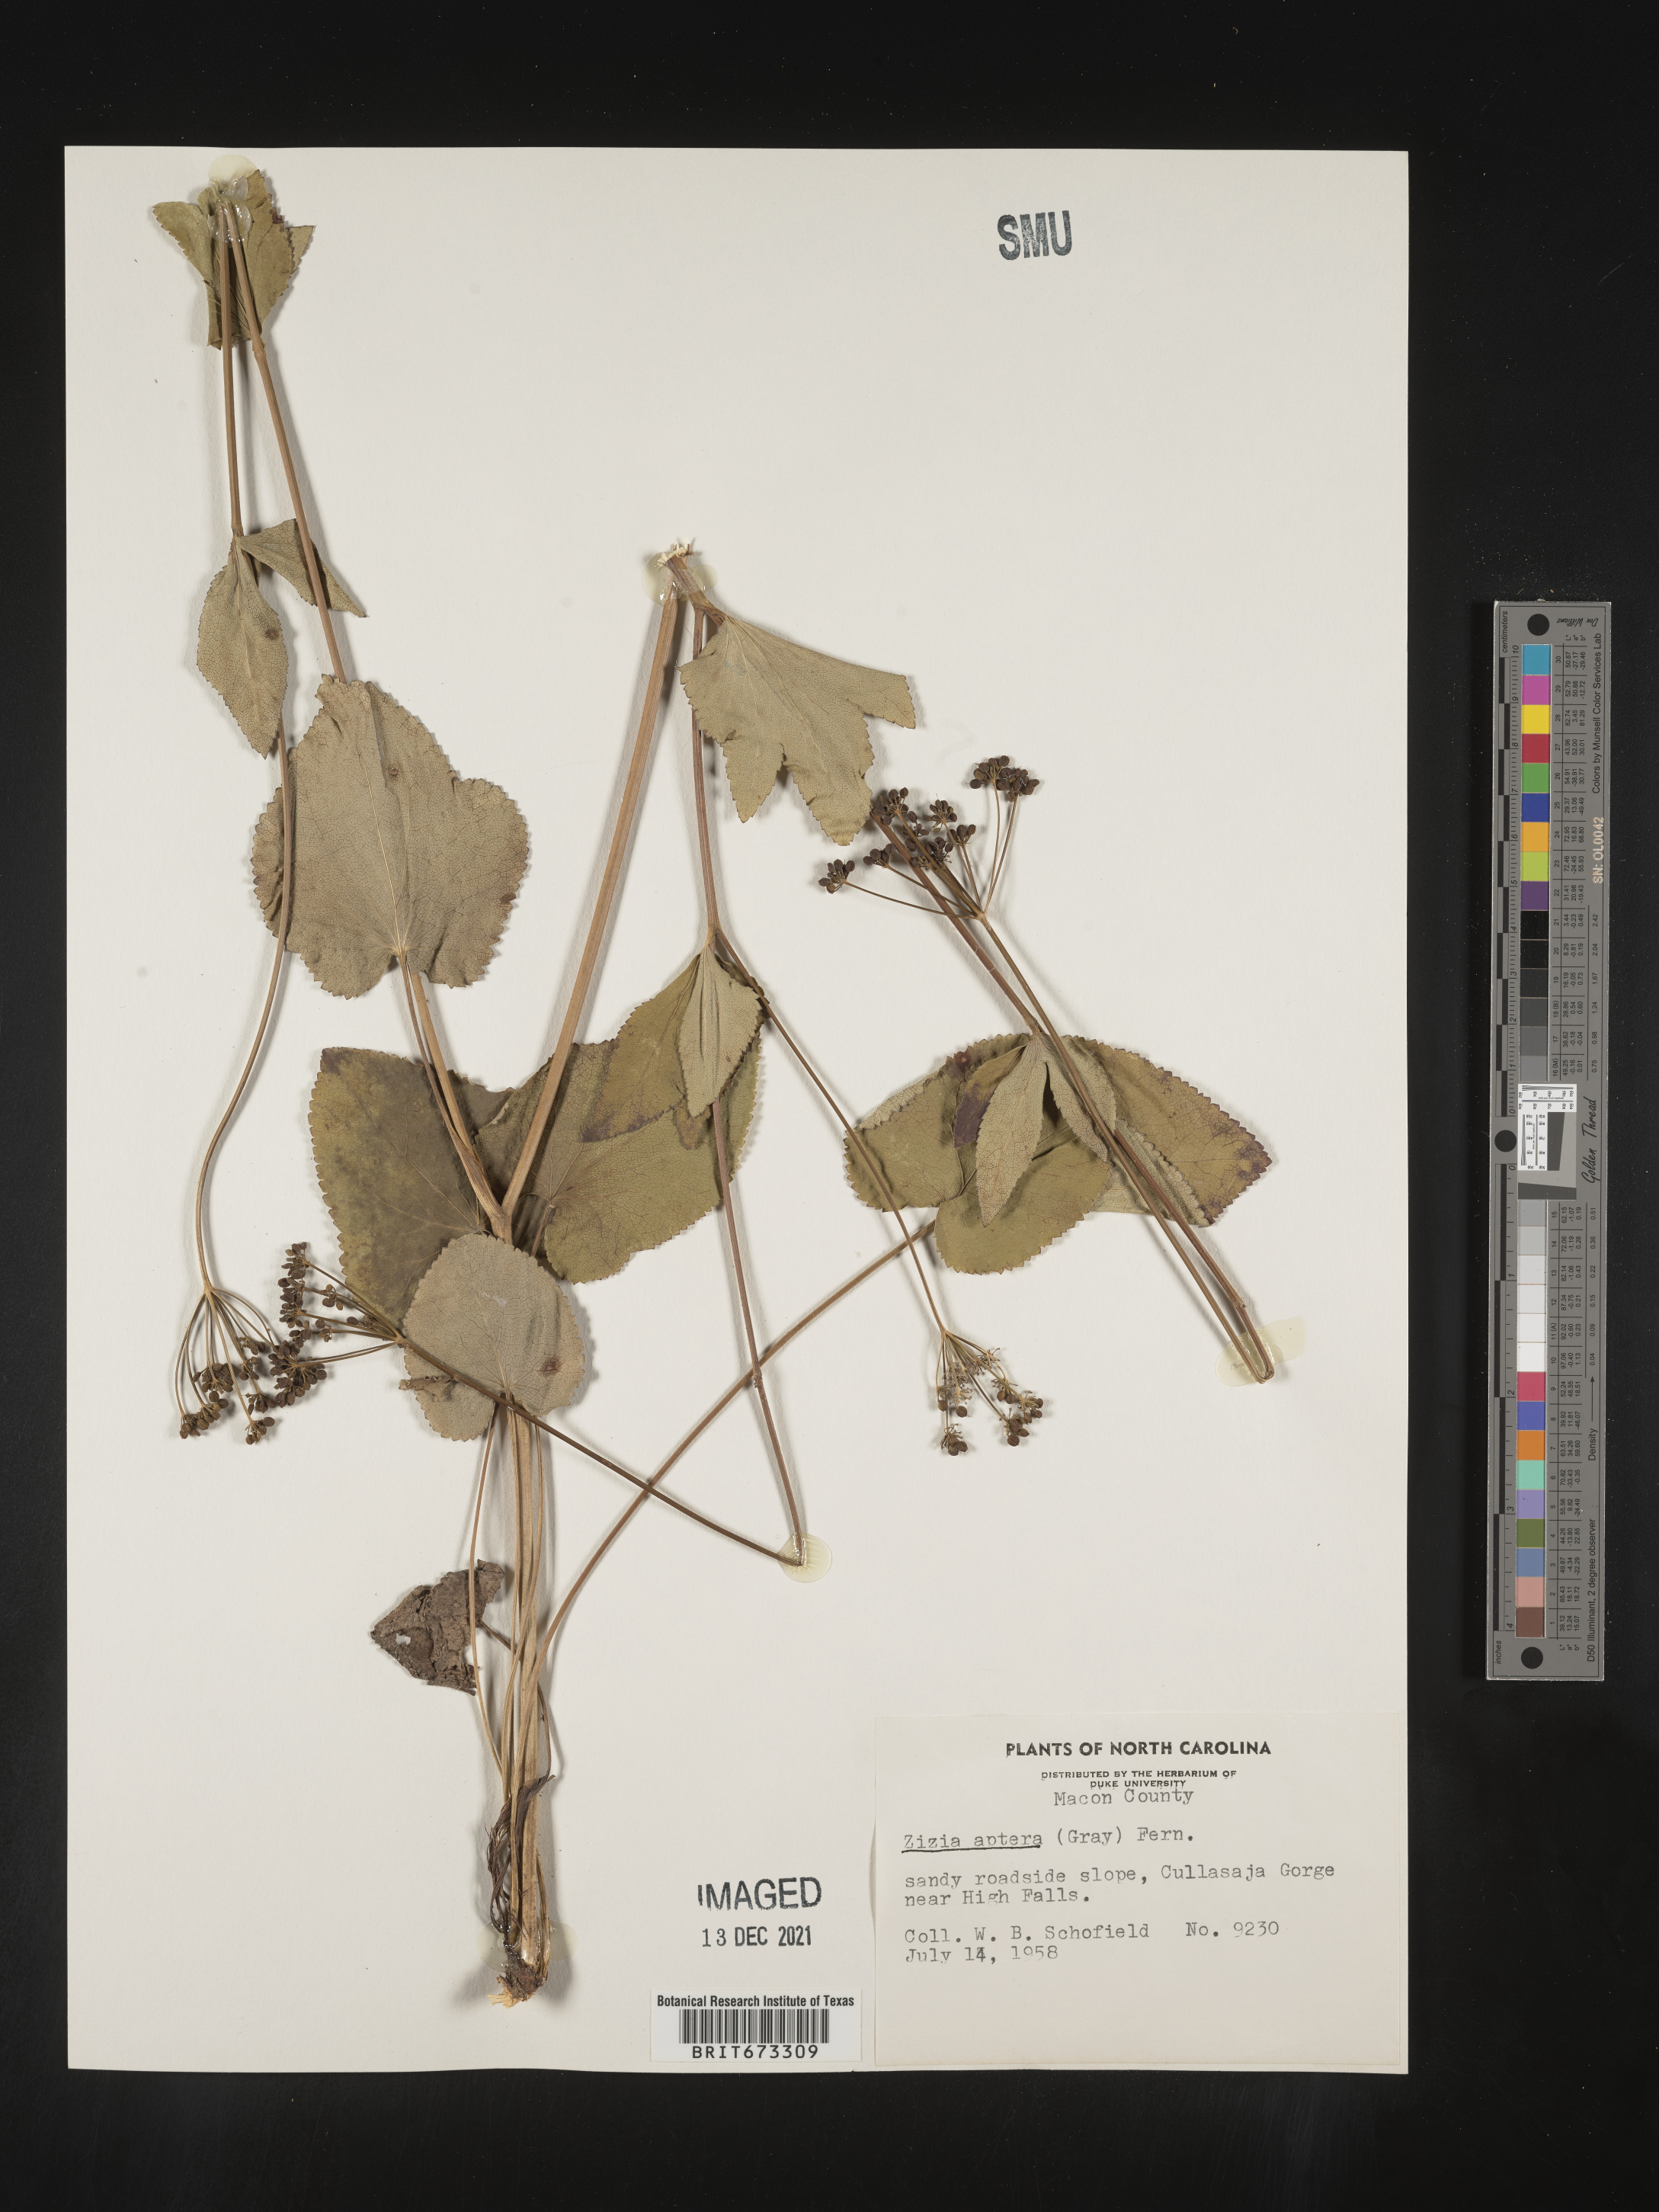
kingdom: Plantae
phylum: Tracheophyta
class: Magnoliopsida
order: Apiales
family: Apiaceae
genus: Zizia
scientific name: Zizia aptera
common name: Heart-leaved alexanders
